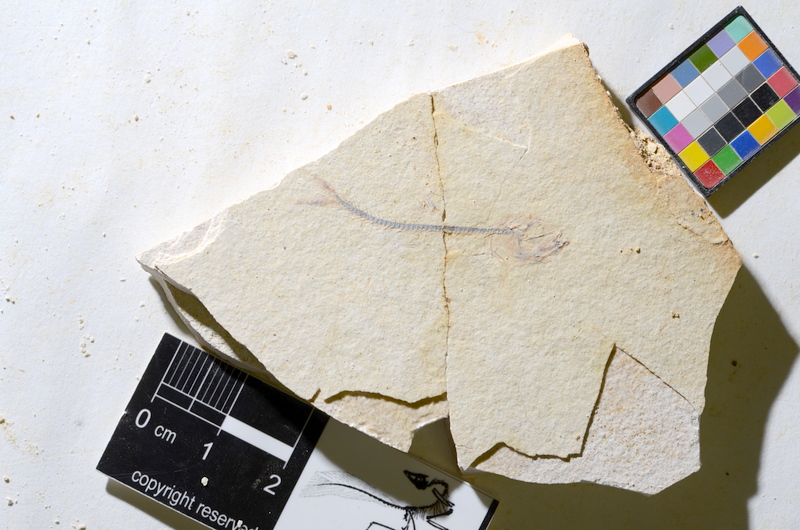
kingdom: Animalia
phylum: Chordata
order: Salmoniformes
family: Orthogonikleithridae
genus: Orthogonikleithrus
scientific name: Orthogonikleithrus hoelli
